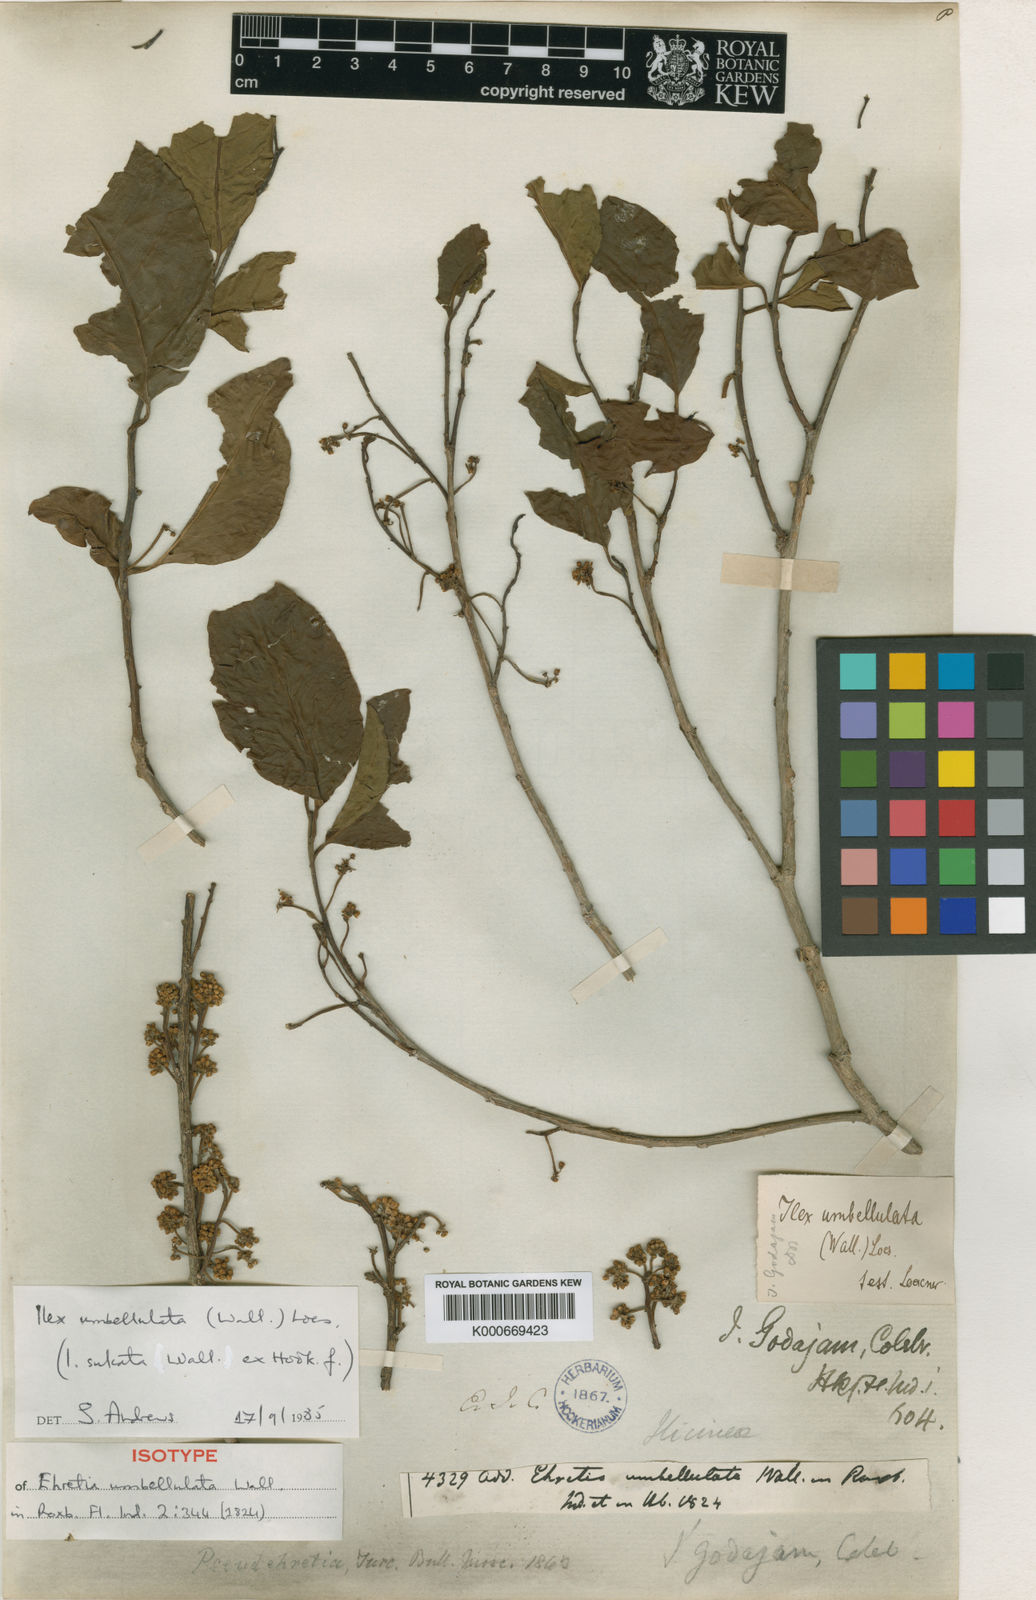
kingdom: Plantae
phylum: Tracheophyta
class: Magnoliopsida
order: Aquifoliales
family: Aquifoliaceae
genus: Ilex
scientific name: Ilex umbellulata
